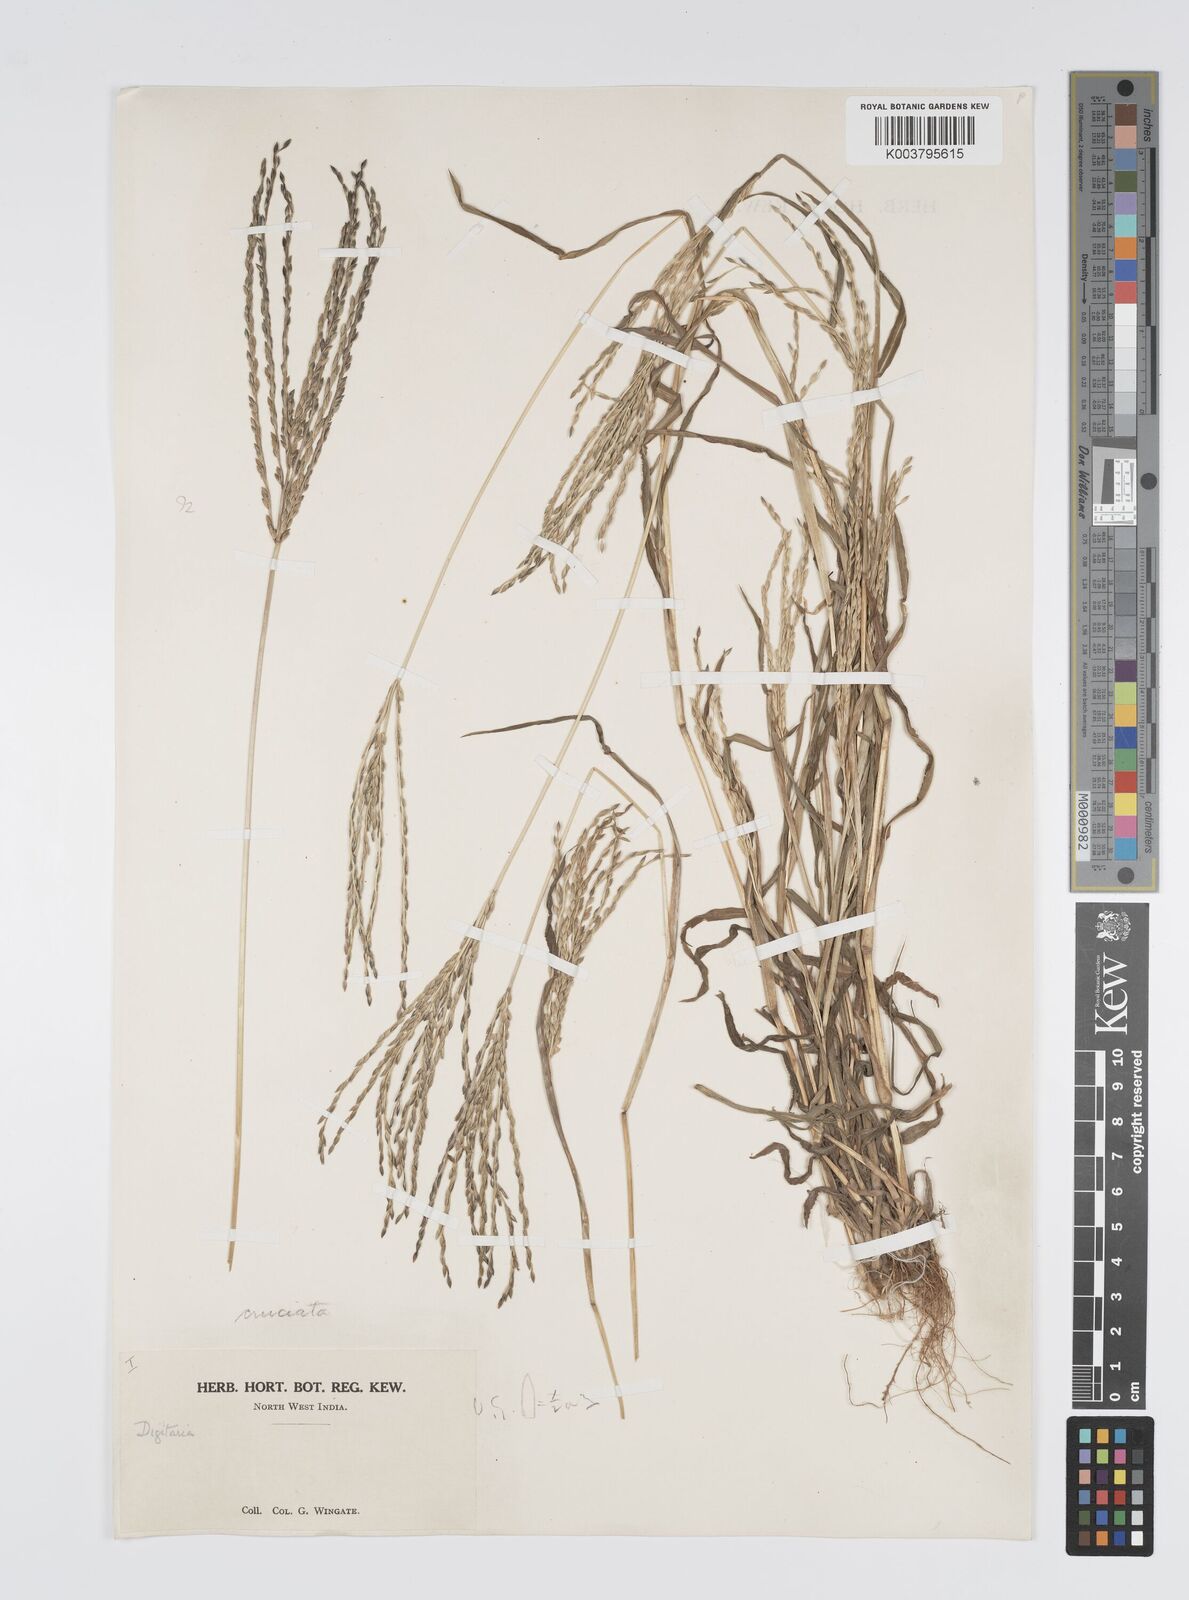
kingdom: Plantae
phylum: Tracheophyta
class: Liliopsida
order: Poales
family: Poaceae
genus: Digitaria
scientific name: Digitaria sanguinalis
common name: Hairy crabgrass
